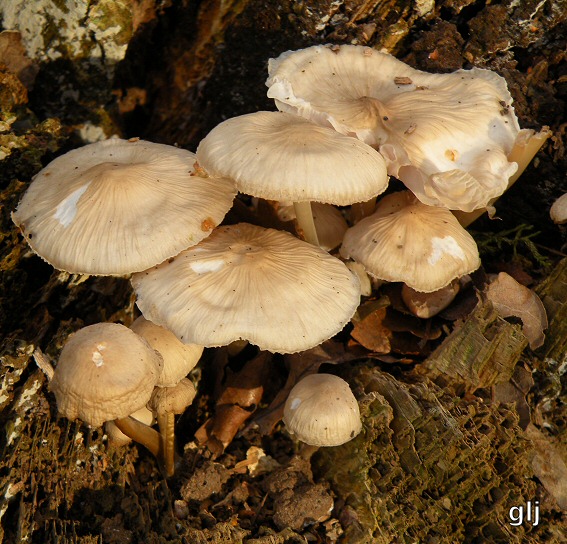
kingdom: Fungi
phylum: Basidiomycota
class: Agaricomycetes
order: Agaricales
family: Mycenaceae
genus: Mycena
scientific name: Mycena galericulata
